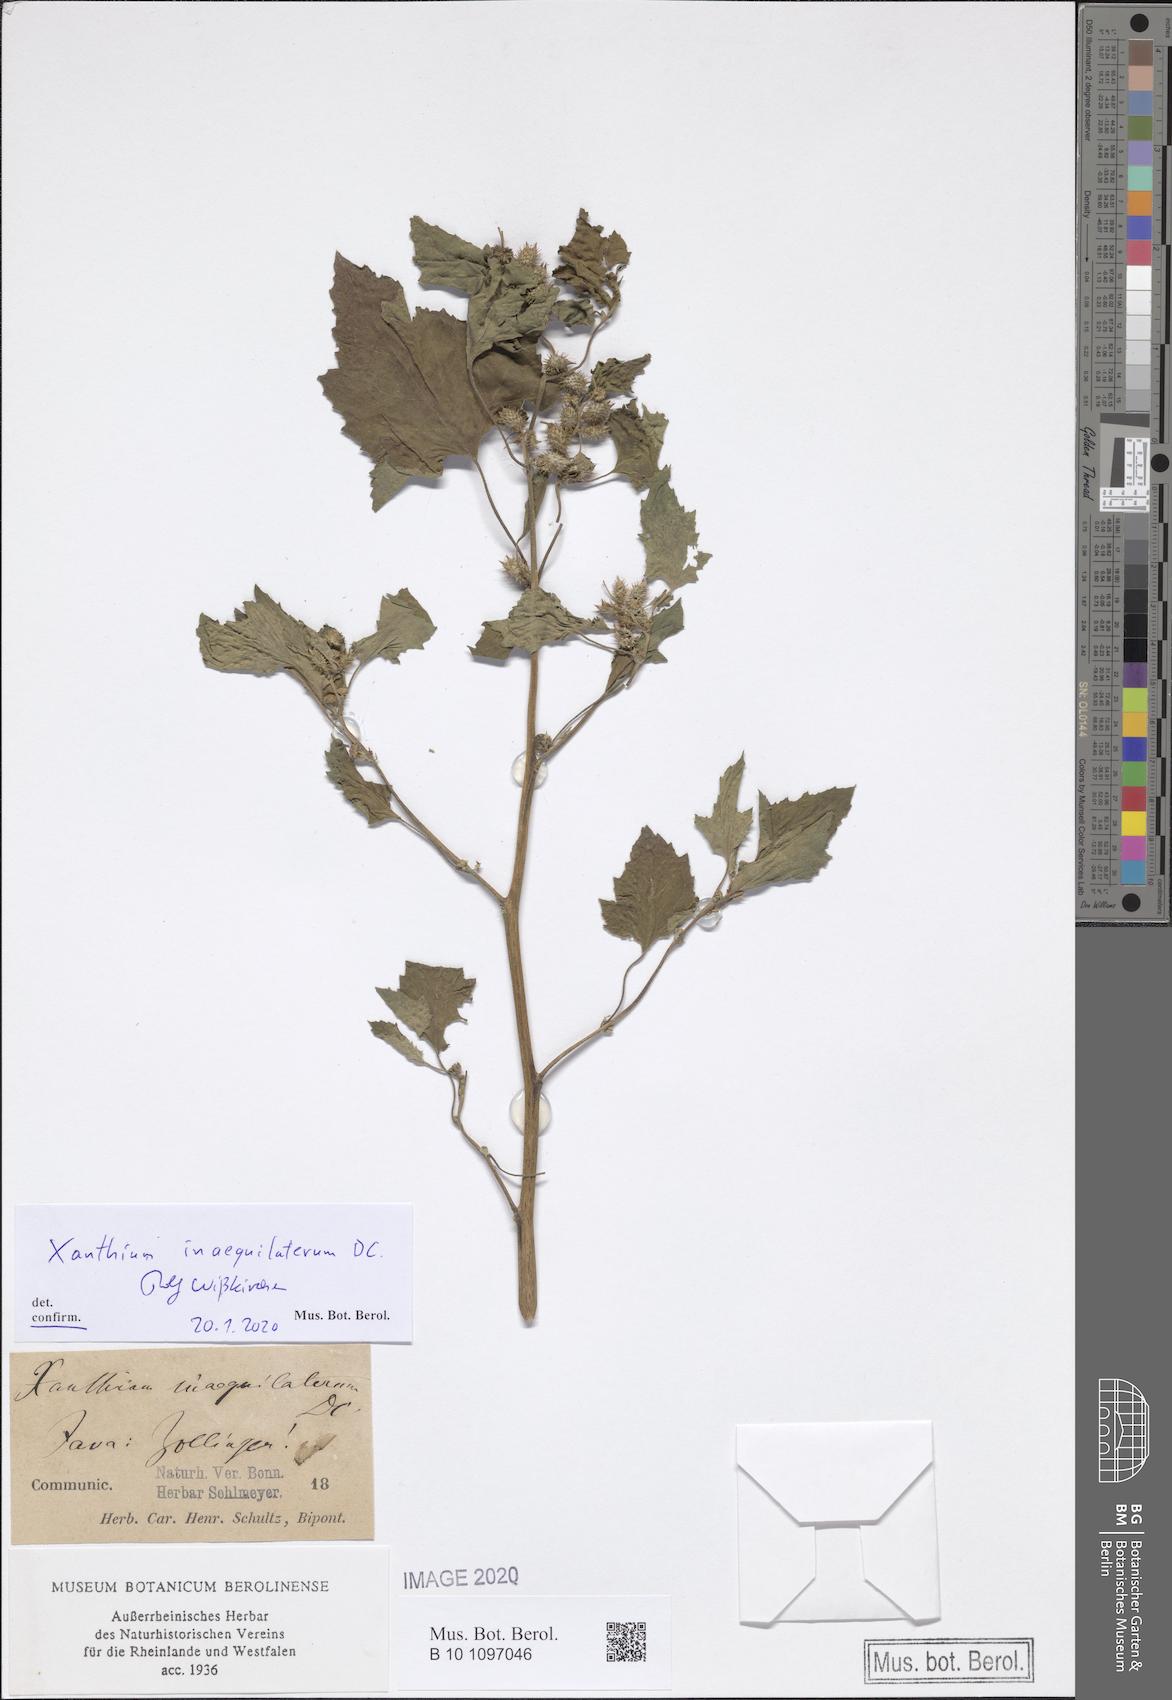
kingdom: Plantae
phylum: Tracheophyta
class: Magnoliopsida
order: Asterales
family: Asteraceae
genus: Xanthium
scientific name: Xanthium strumarium
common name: Rough cocklebur
